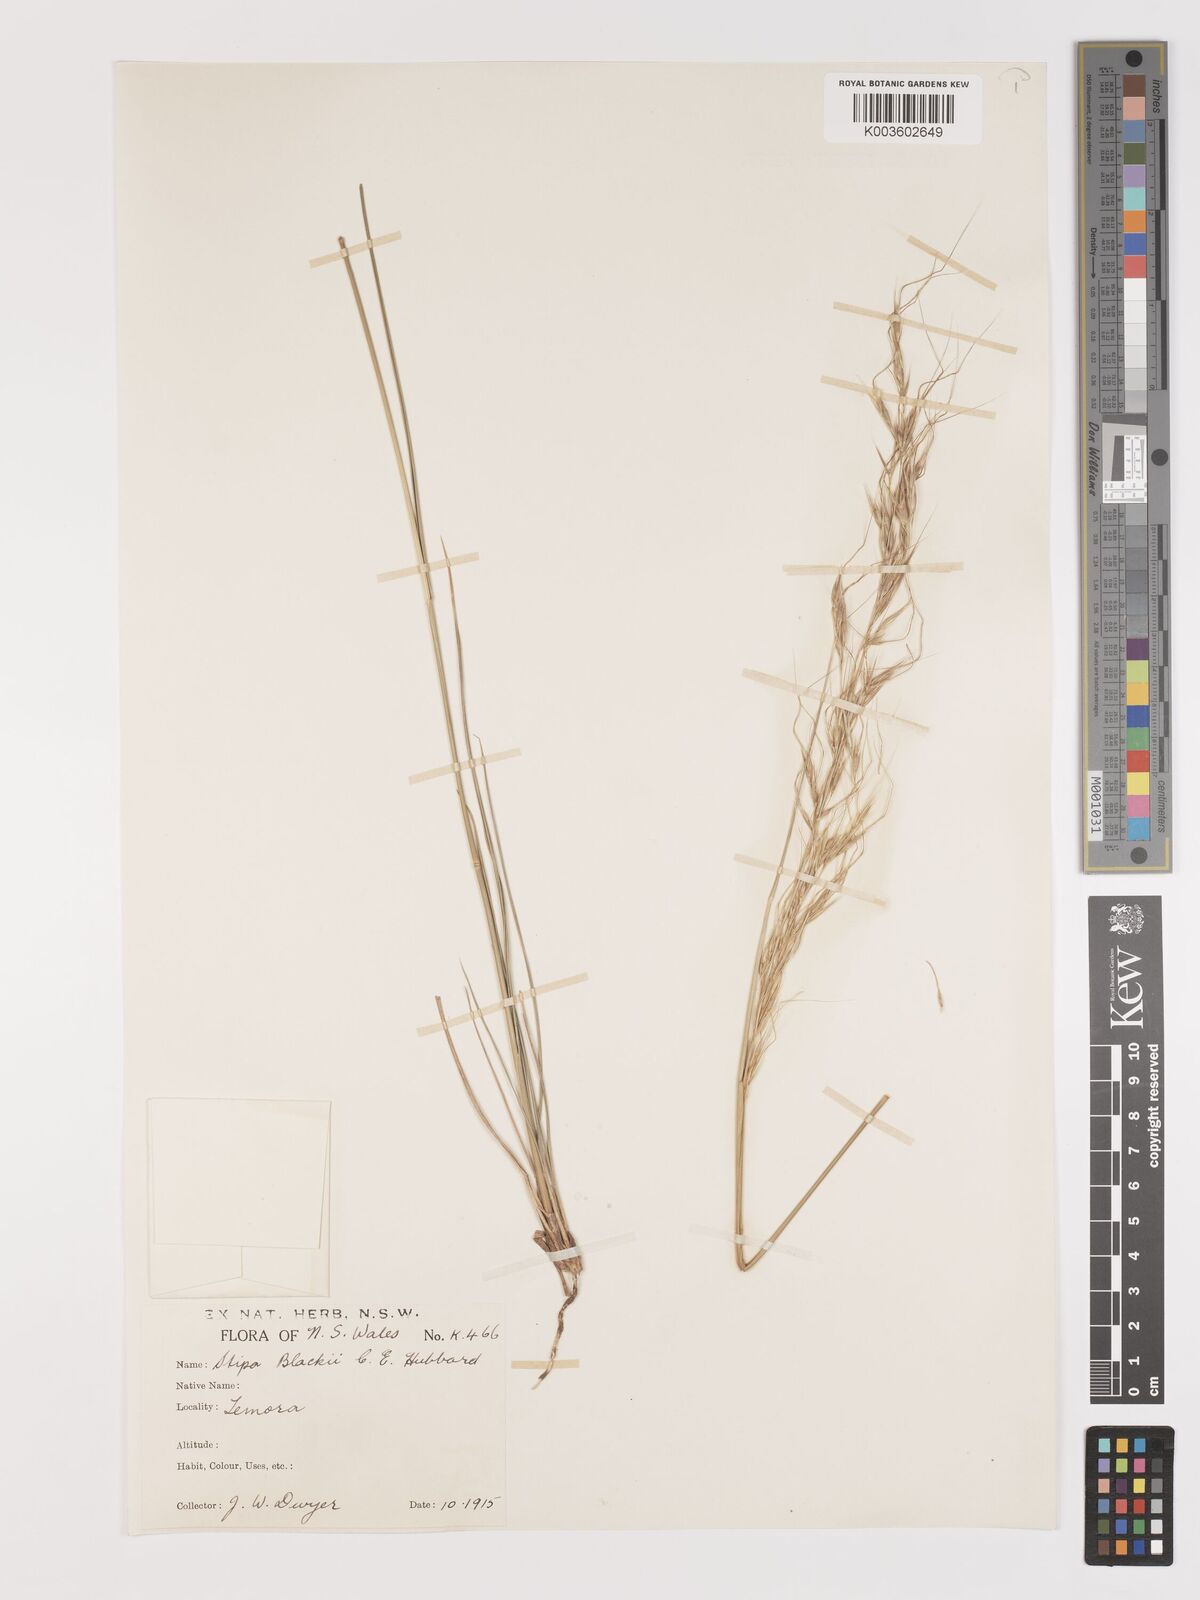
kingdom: Plantae
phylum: Tracheophyta
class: Liliopsida
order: Poales
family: Poaceae
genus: Austrostipa
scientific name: Austrostipa blackii
